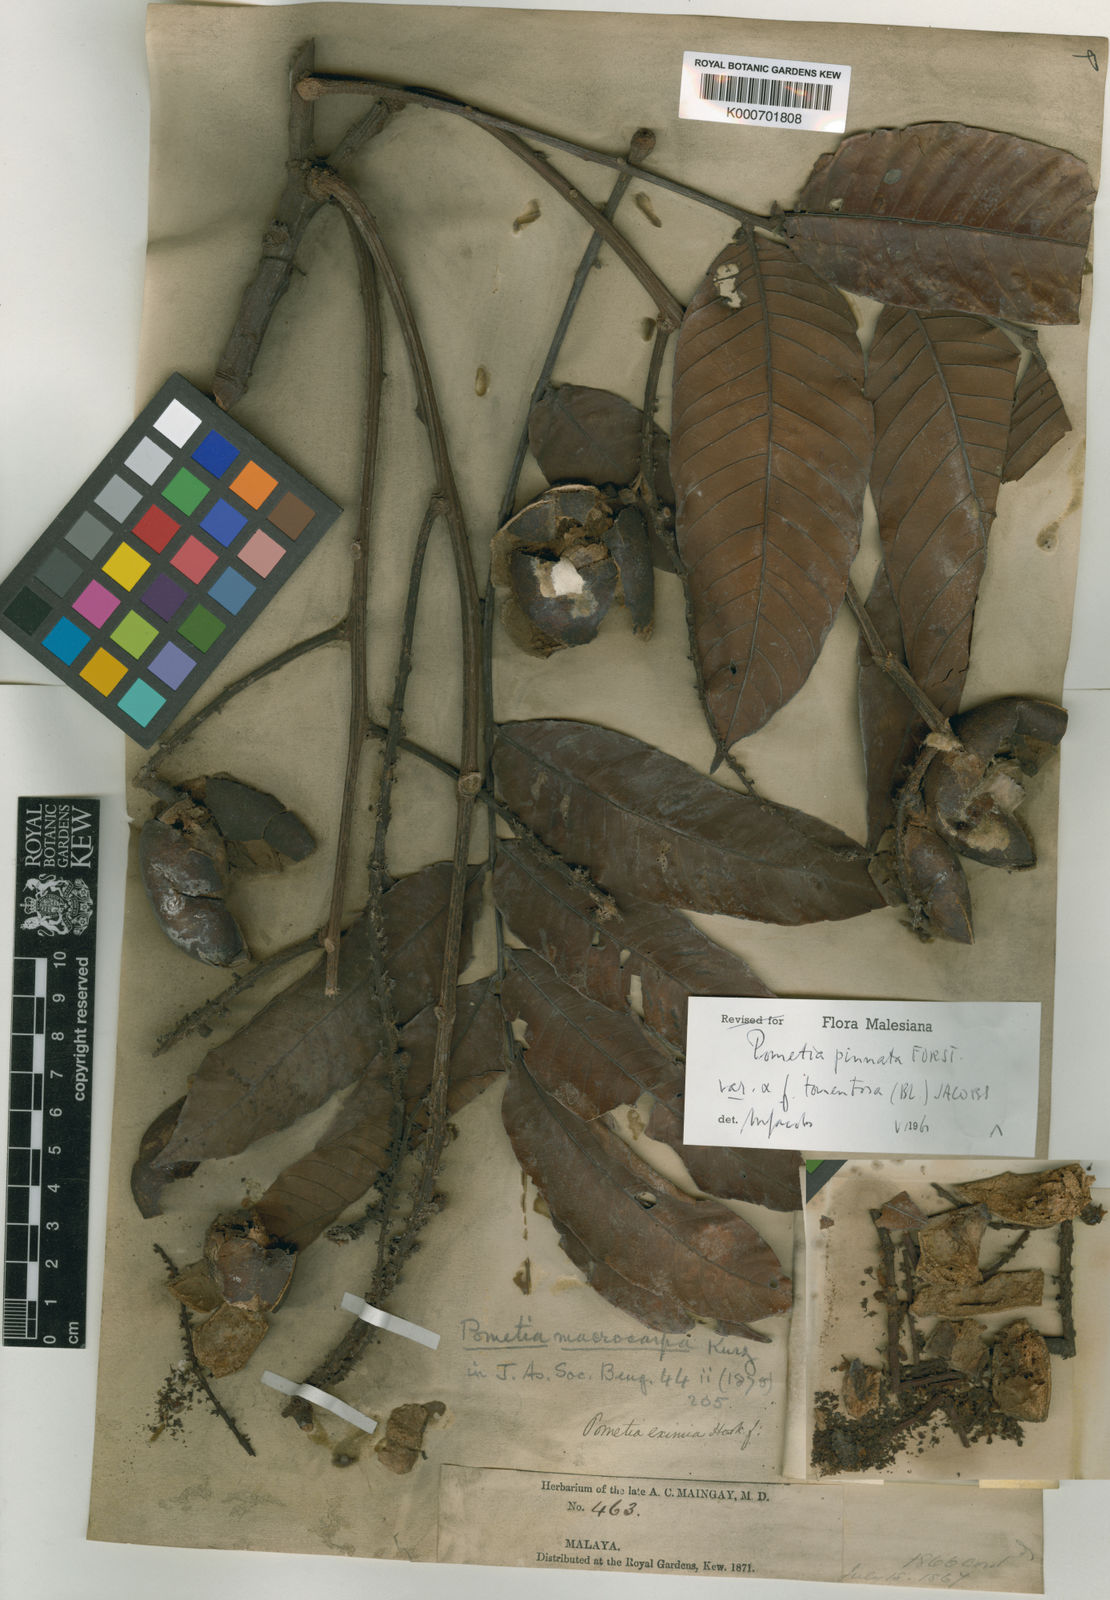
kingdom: Plantae
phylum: Tracheophyta
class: Magnoliopsida
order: Sapindales
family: Sapindaceae
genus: Pometia
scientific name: Pometia pinnata
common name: Oceanic lychee
